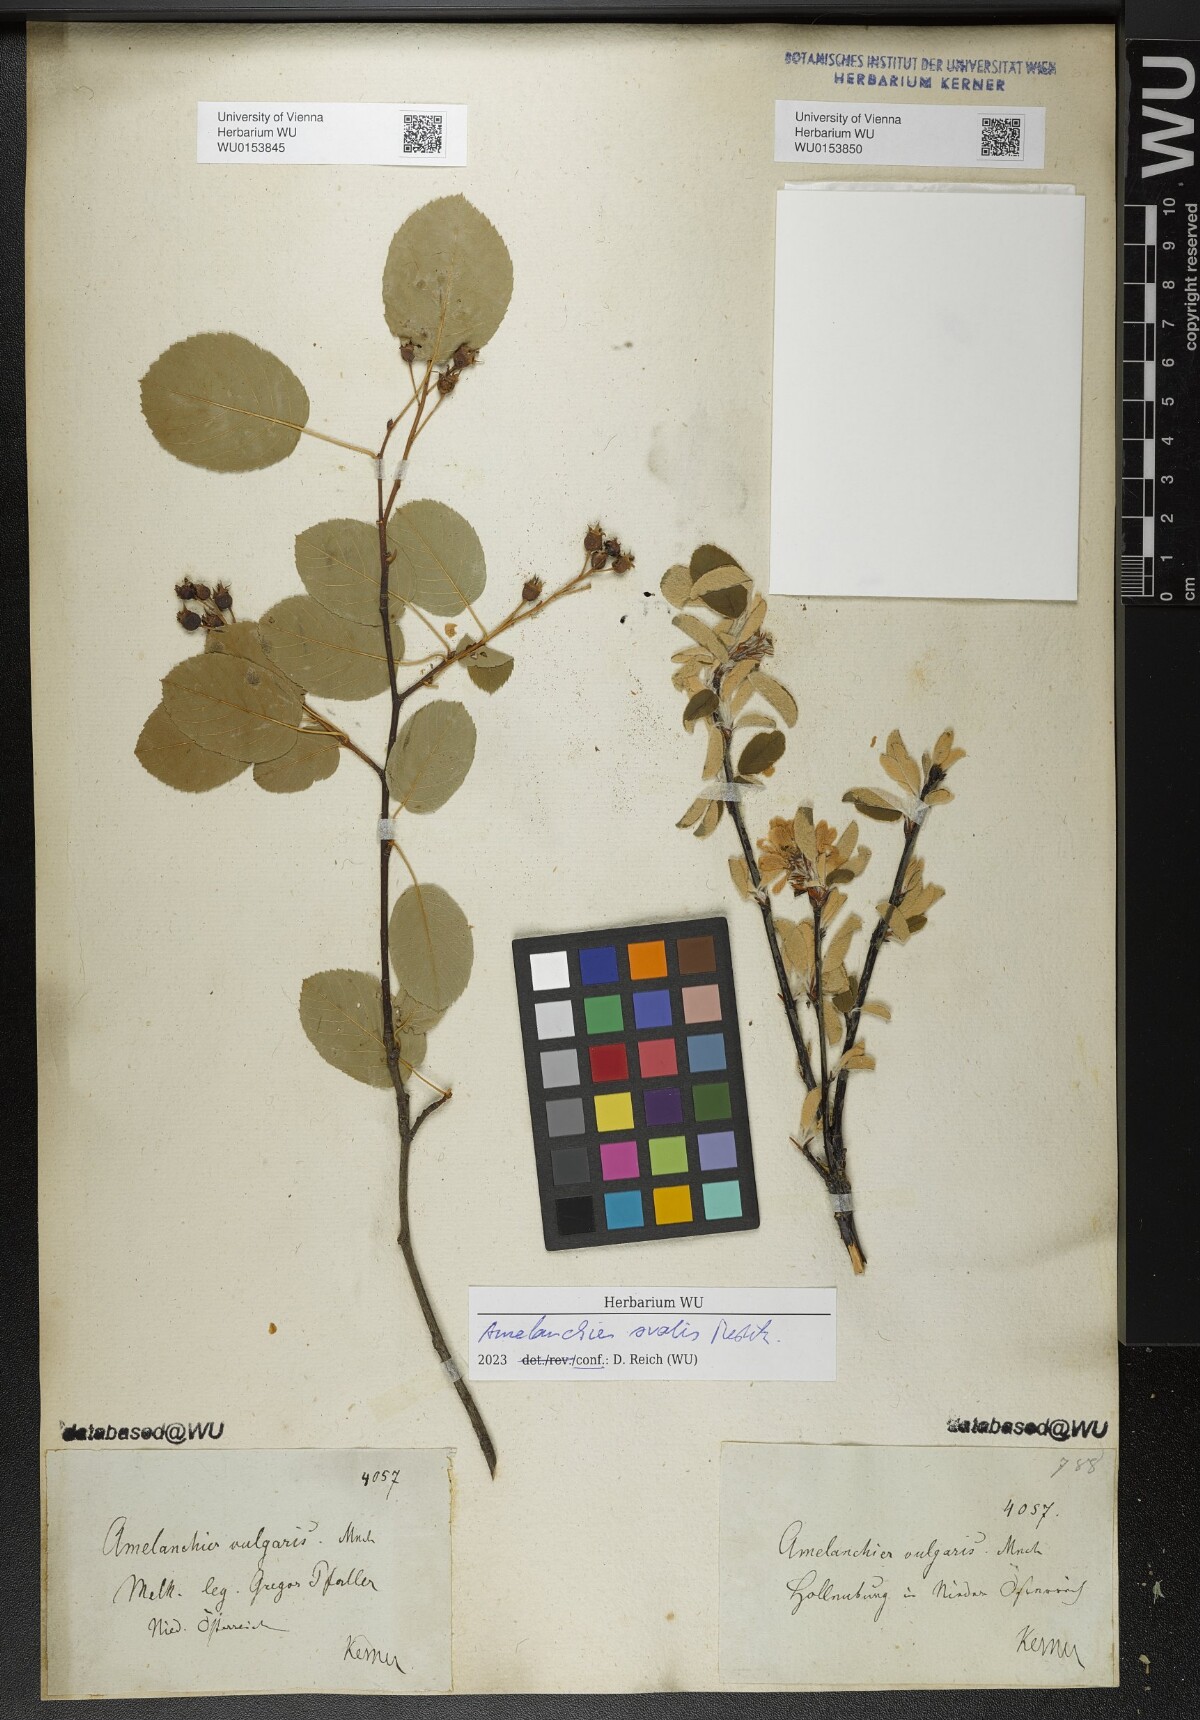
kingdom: Plantae
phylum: Tracheophyta
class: Magnoliopsida
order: Rosales
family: Rosaceae
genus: Amelanchier
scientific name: Amelanchier ovalis
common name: Serviceberry
